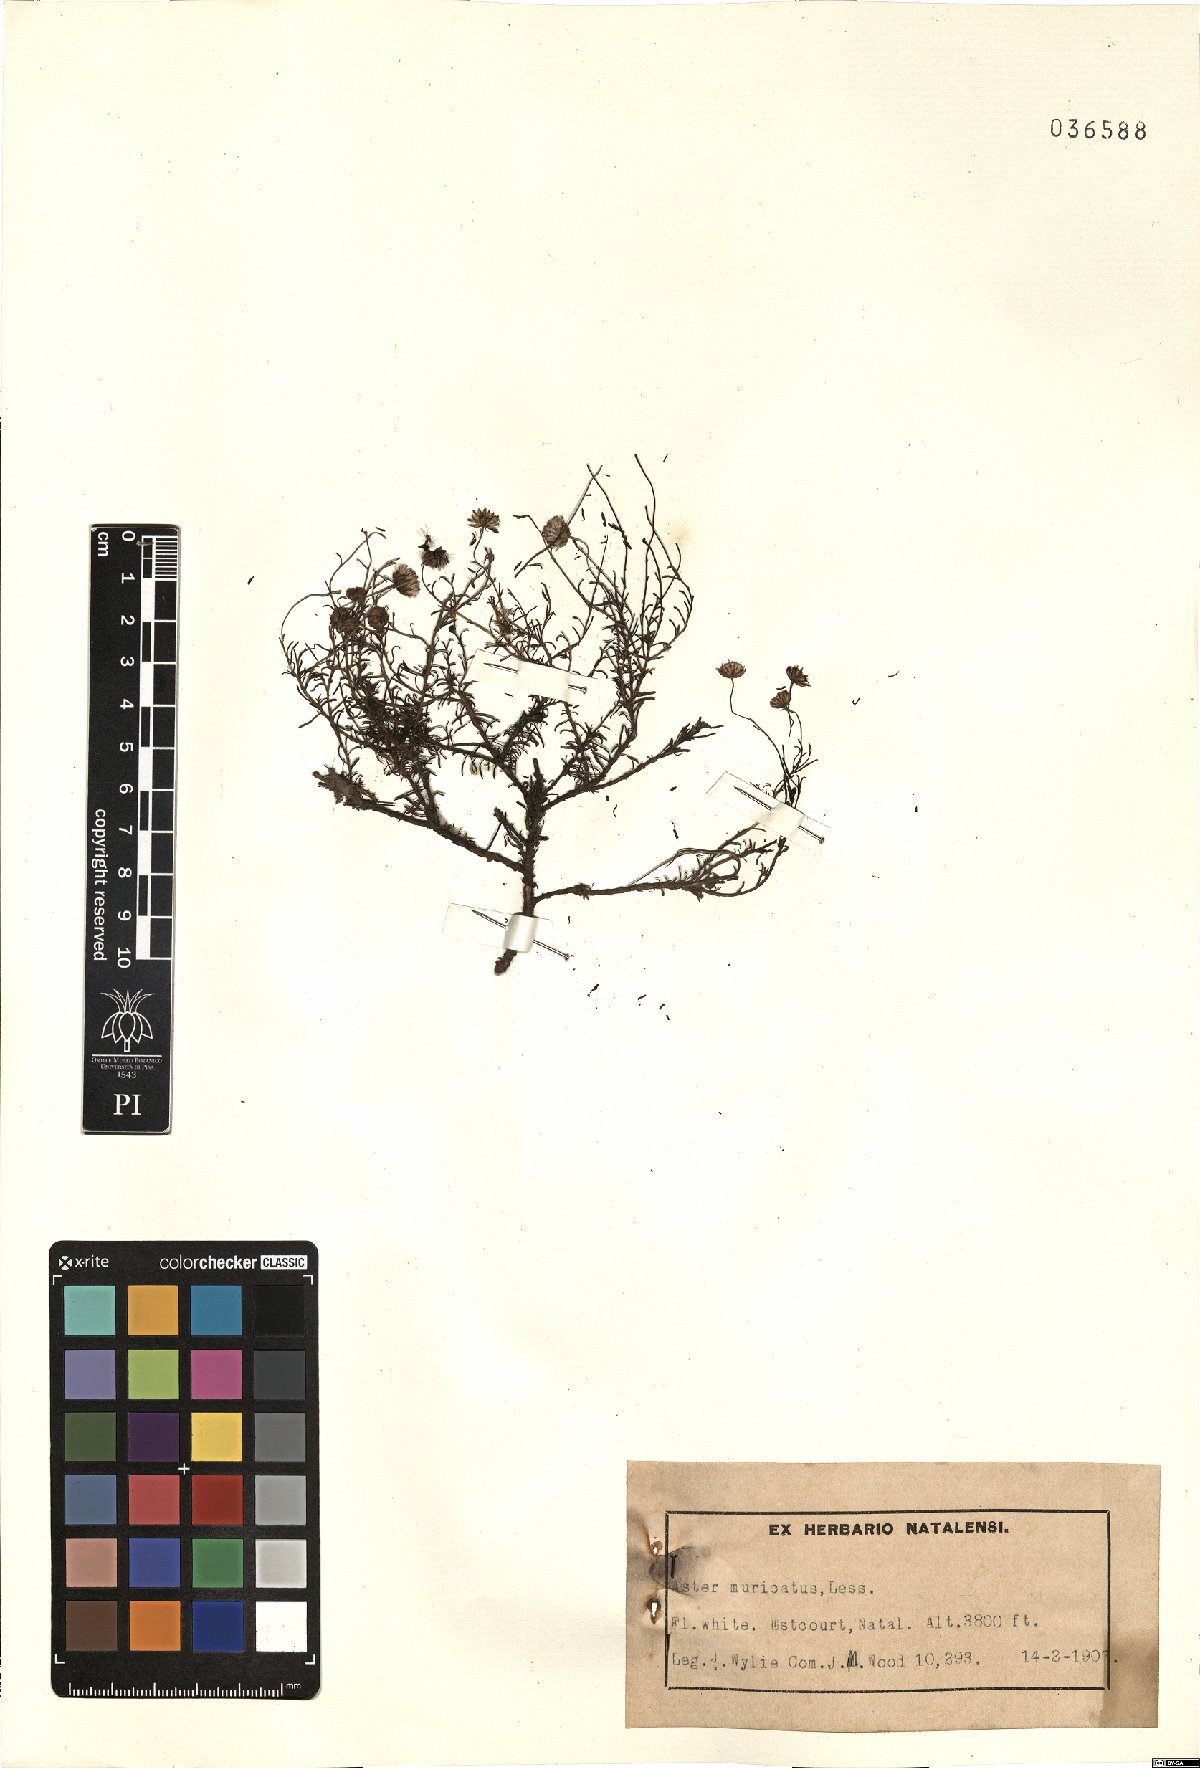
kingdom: Plantae
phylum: Tracheophyta
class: Magnoliopsida
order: Asterales
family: Asteraceae
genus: Felicia
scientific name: Felicia muricata
